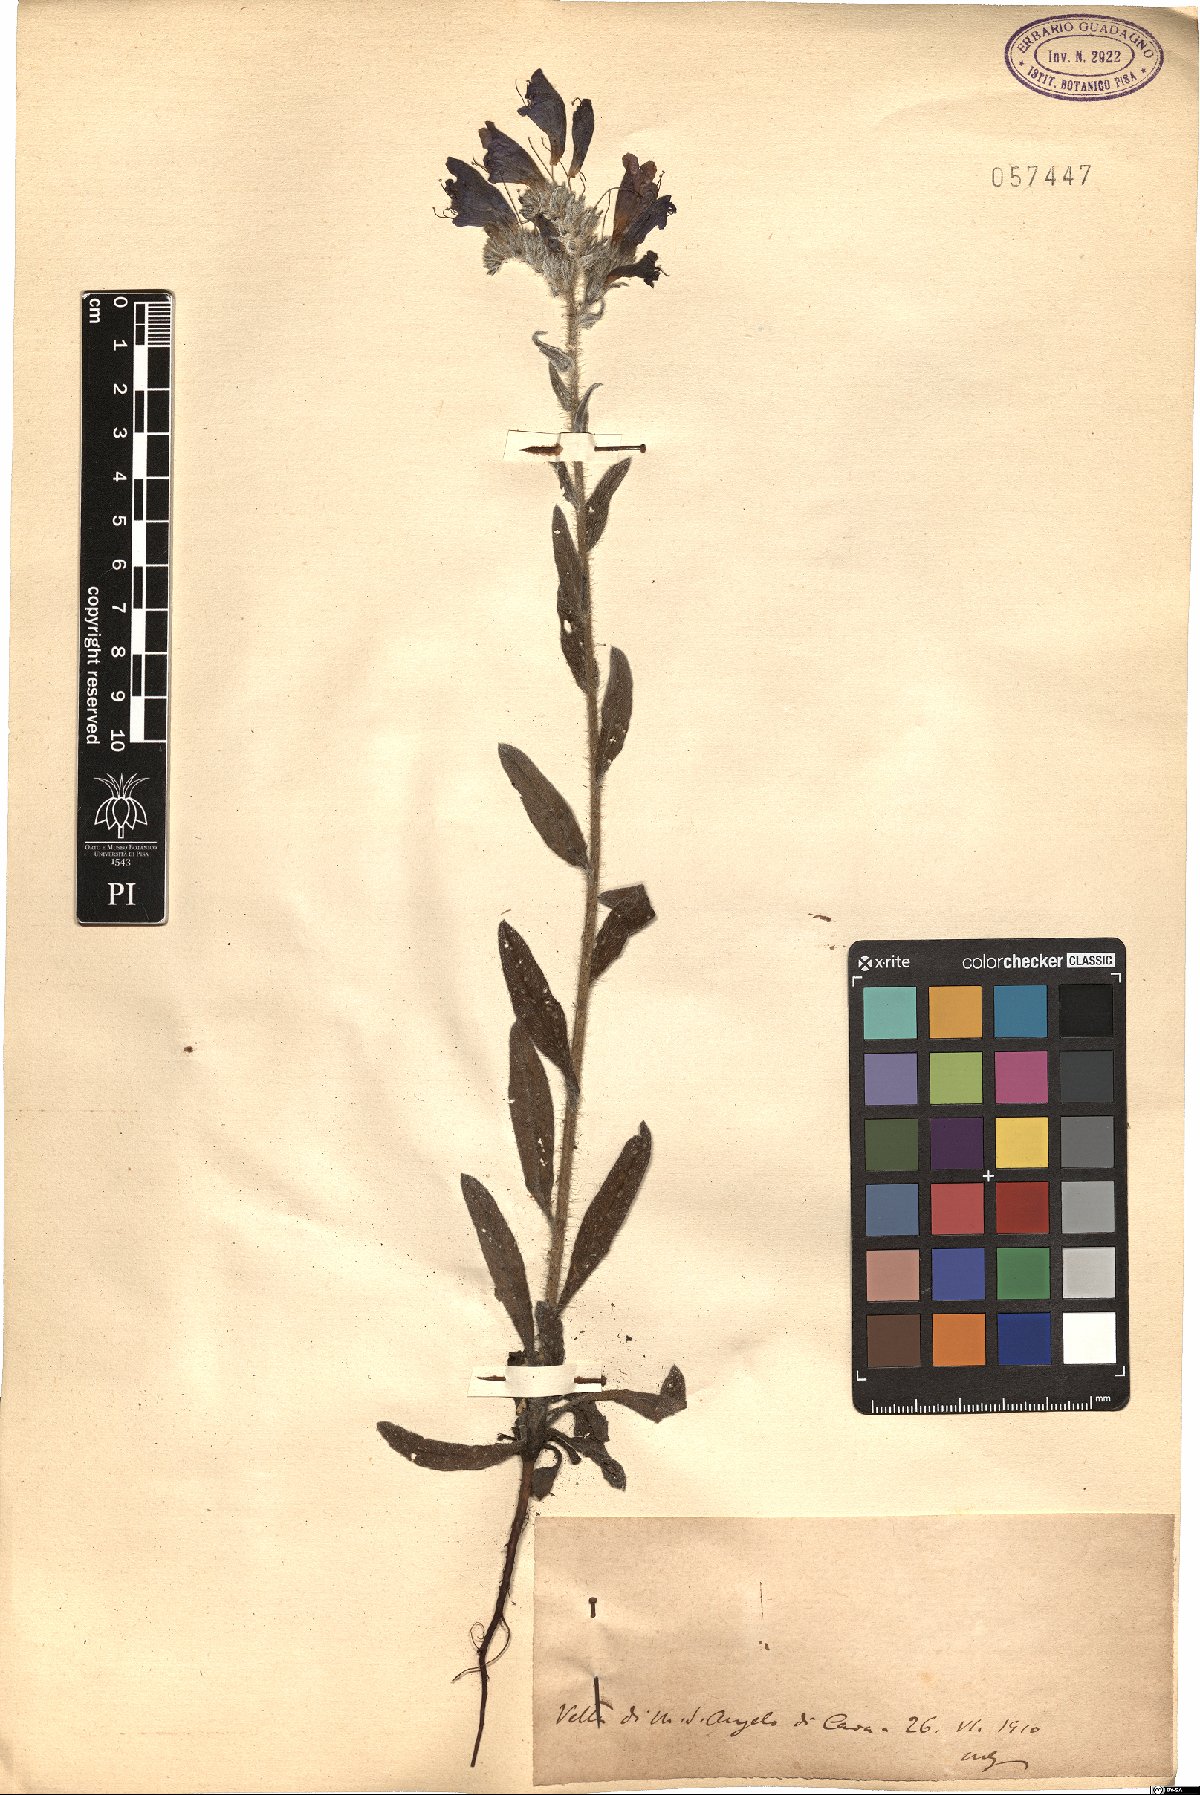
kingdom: Plantae
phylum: Tracheophyta
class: Magnoliopsida
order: Boraginales
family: Boraginaceae
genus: Echium
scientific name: Echium
